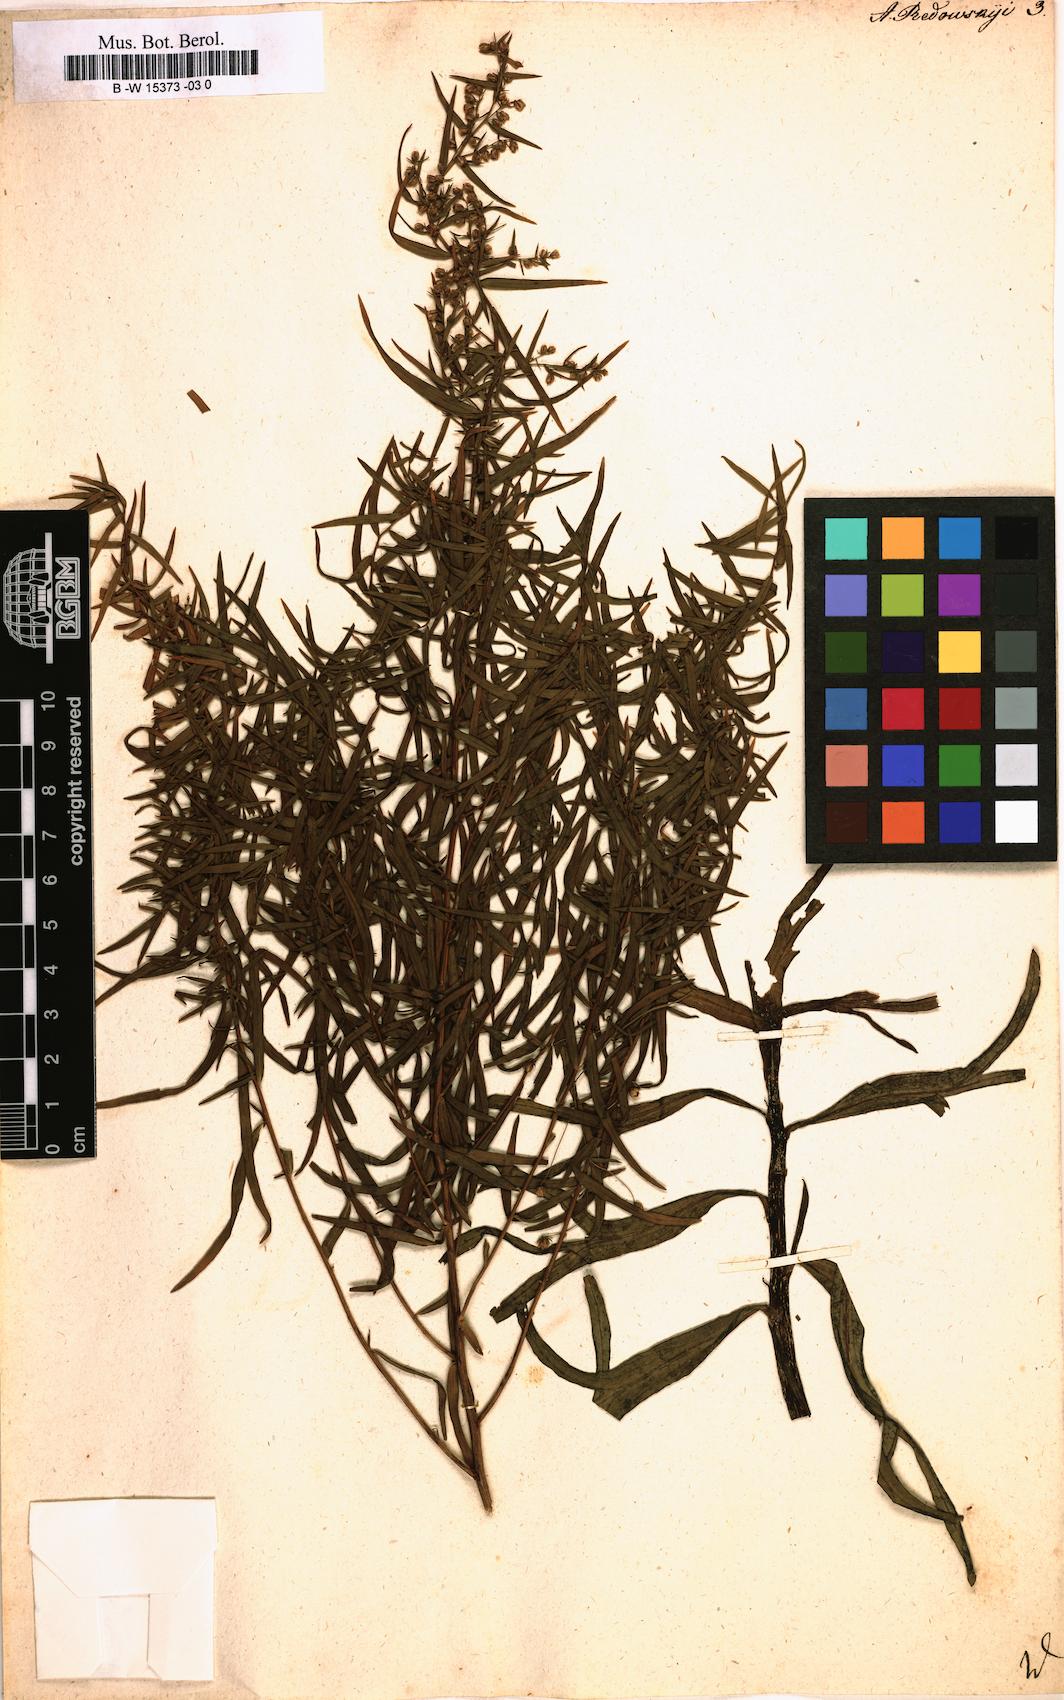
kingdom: Plantae
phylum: Tracheophyta
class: Magnoliopsida
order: Asterales
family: Asteraceae
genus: Artemisia
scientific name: Artemisia dracunculus
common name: Tarragon
